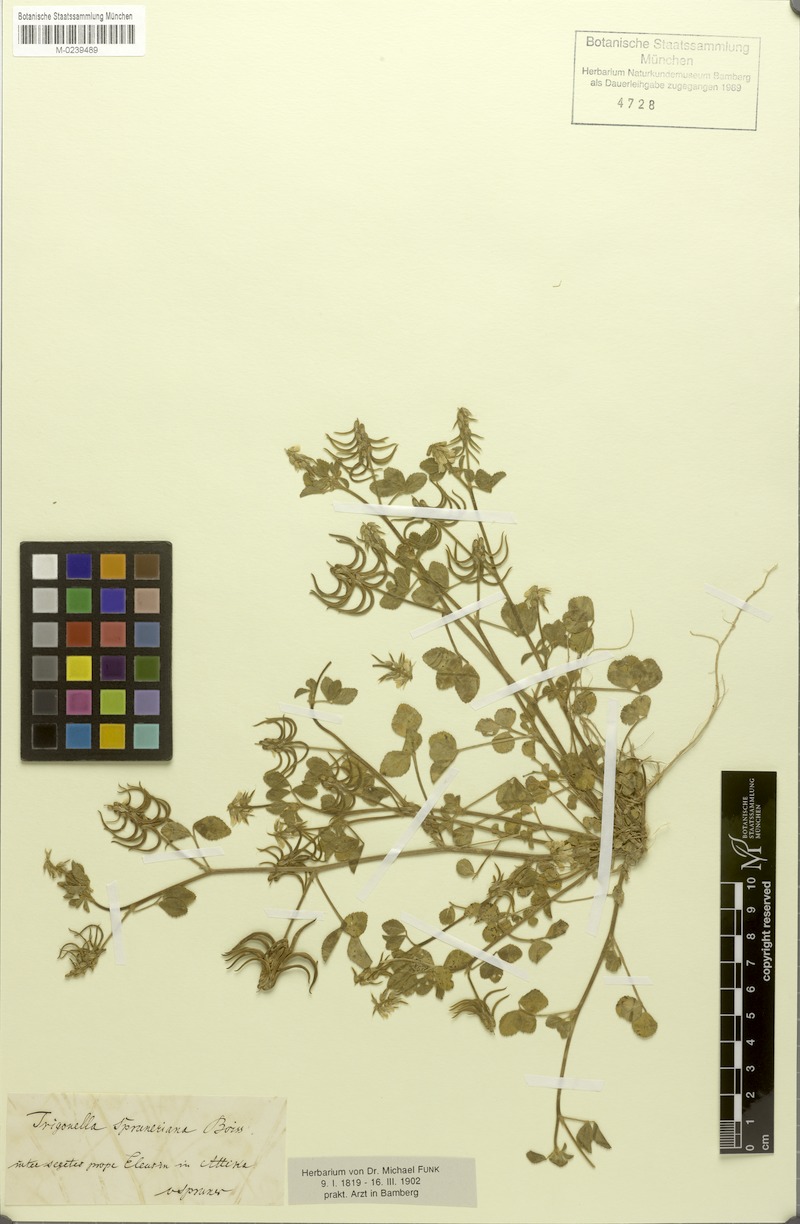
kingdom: Plantae
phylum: Tracheophyta
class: Magnoliopsida
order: Fabales
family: Fabaceae
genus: Trigonella
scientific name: Trigonella spruneriana
